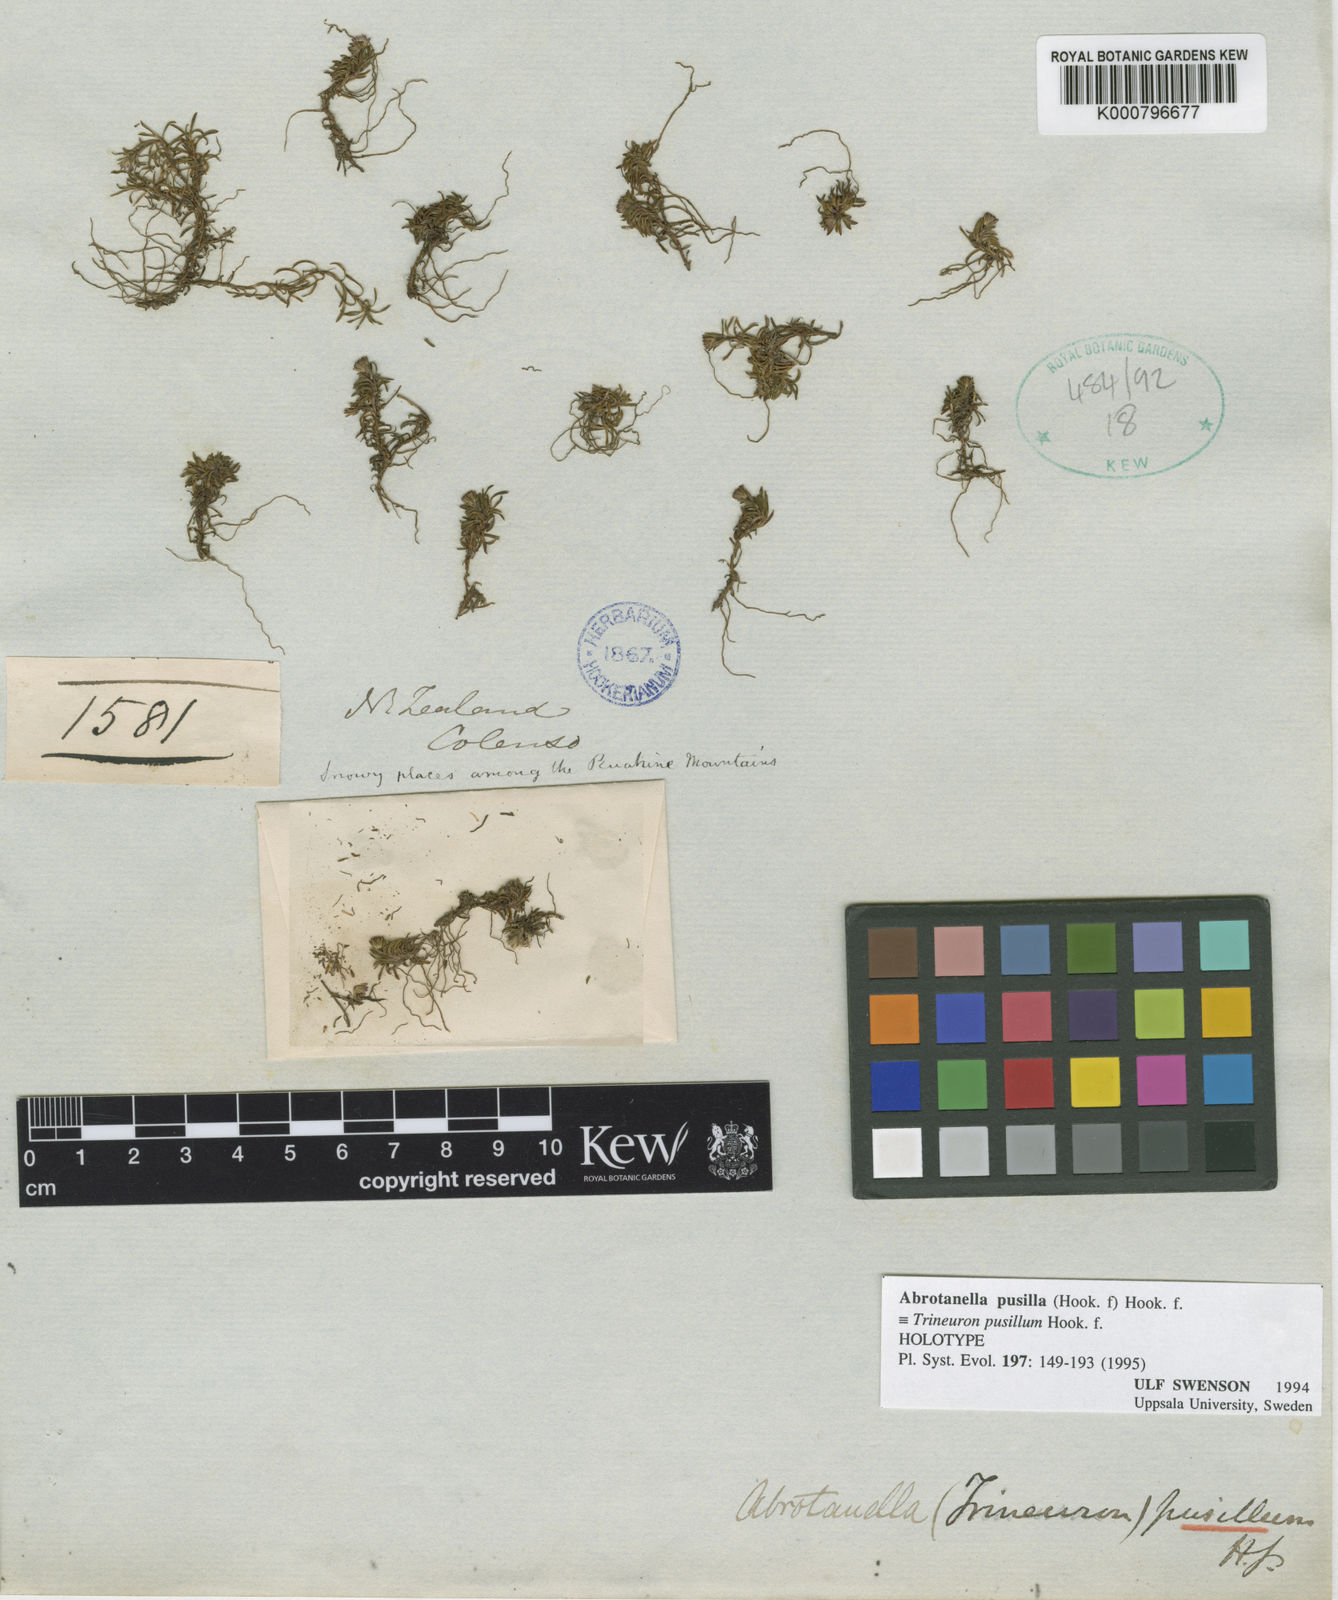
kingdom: Plantae
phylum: Tracheophyta
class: Magnoliopsida
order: Asterales
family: Asteraceae
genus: Abrotanella
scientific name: Abrotanella pusilla
